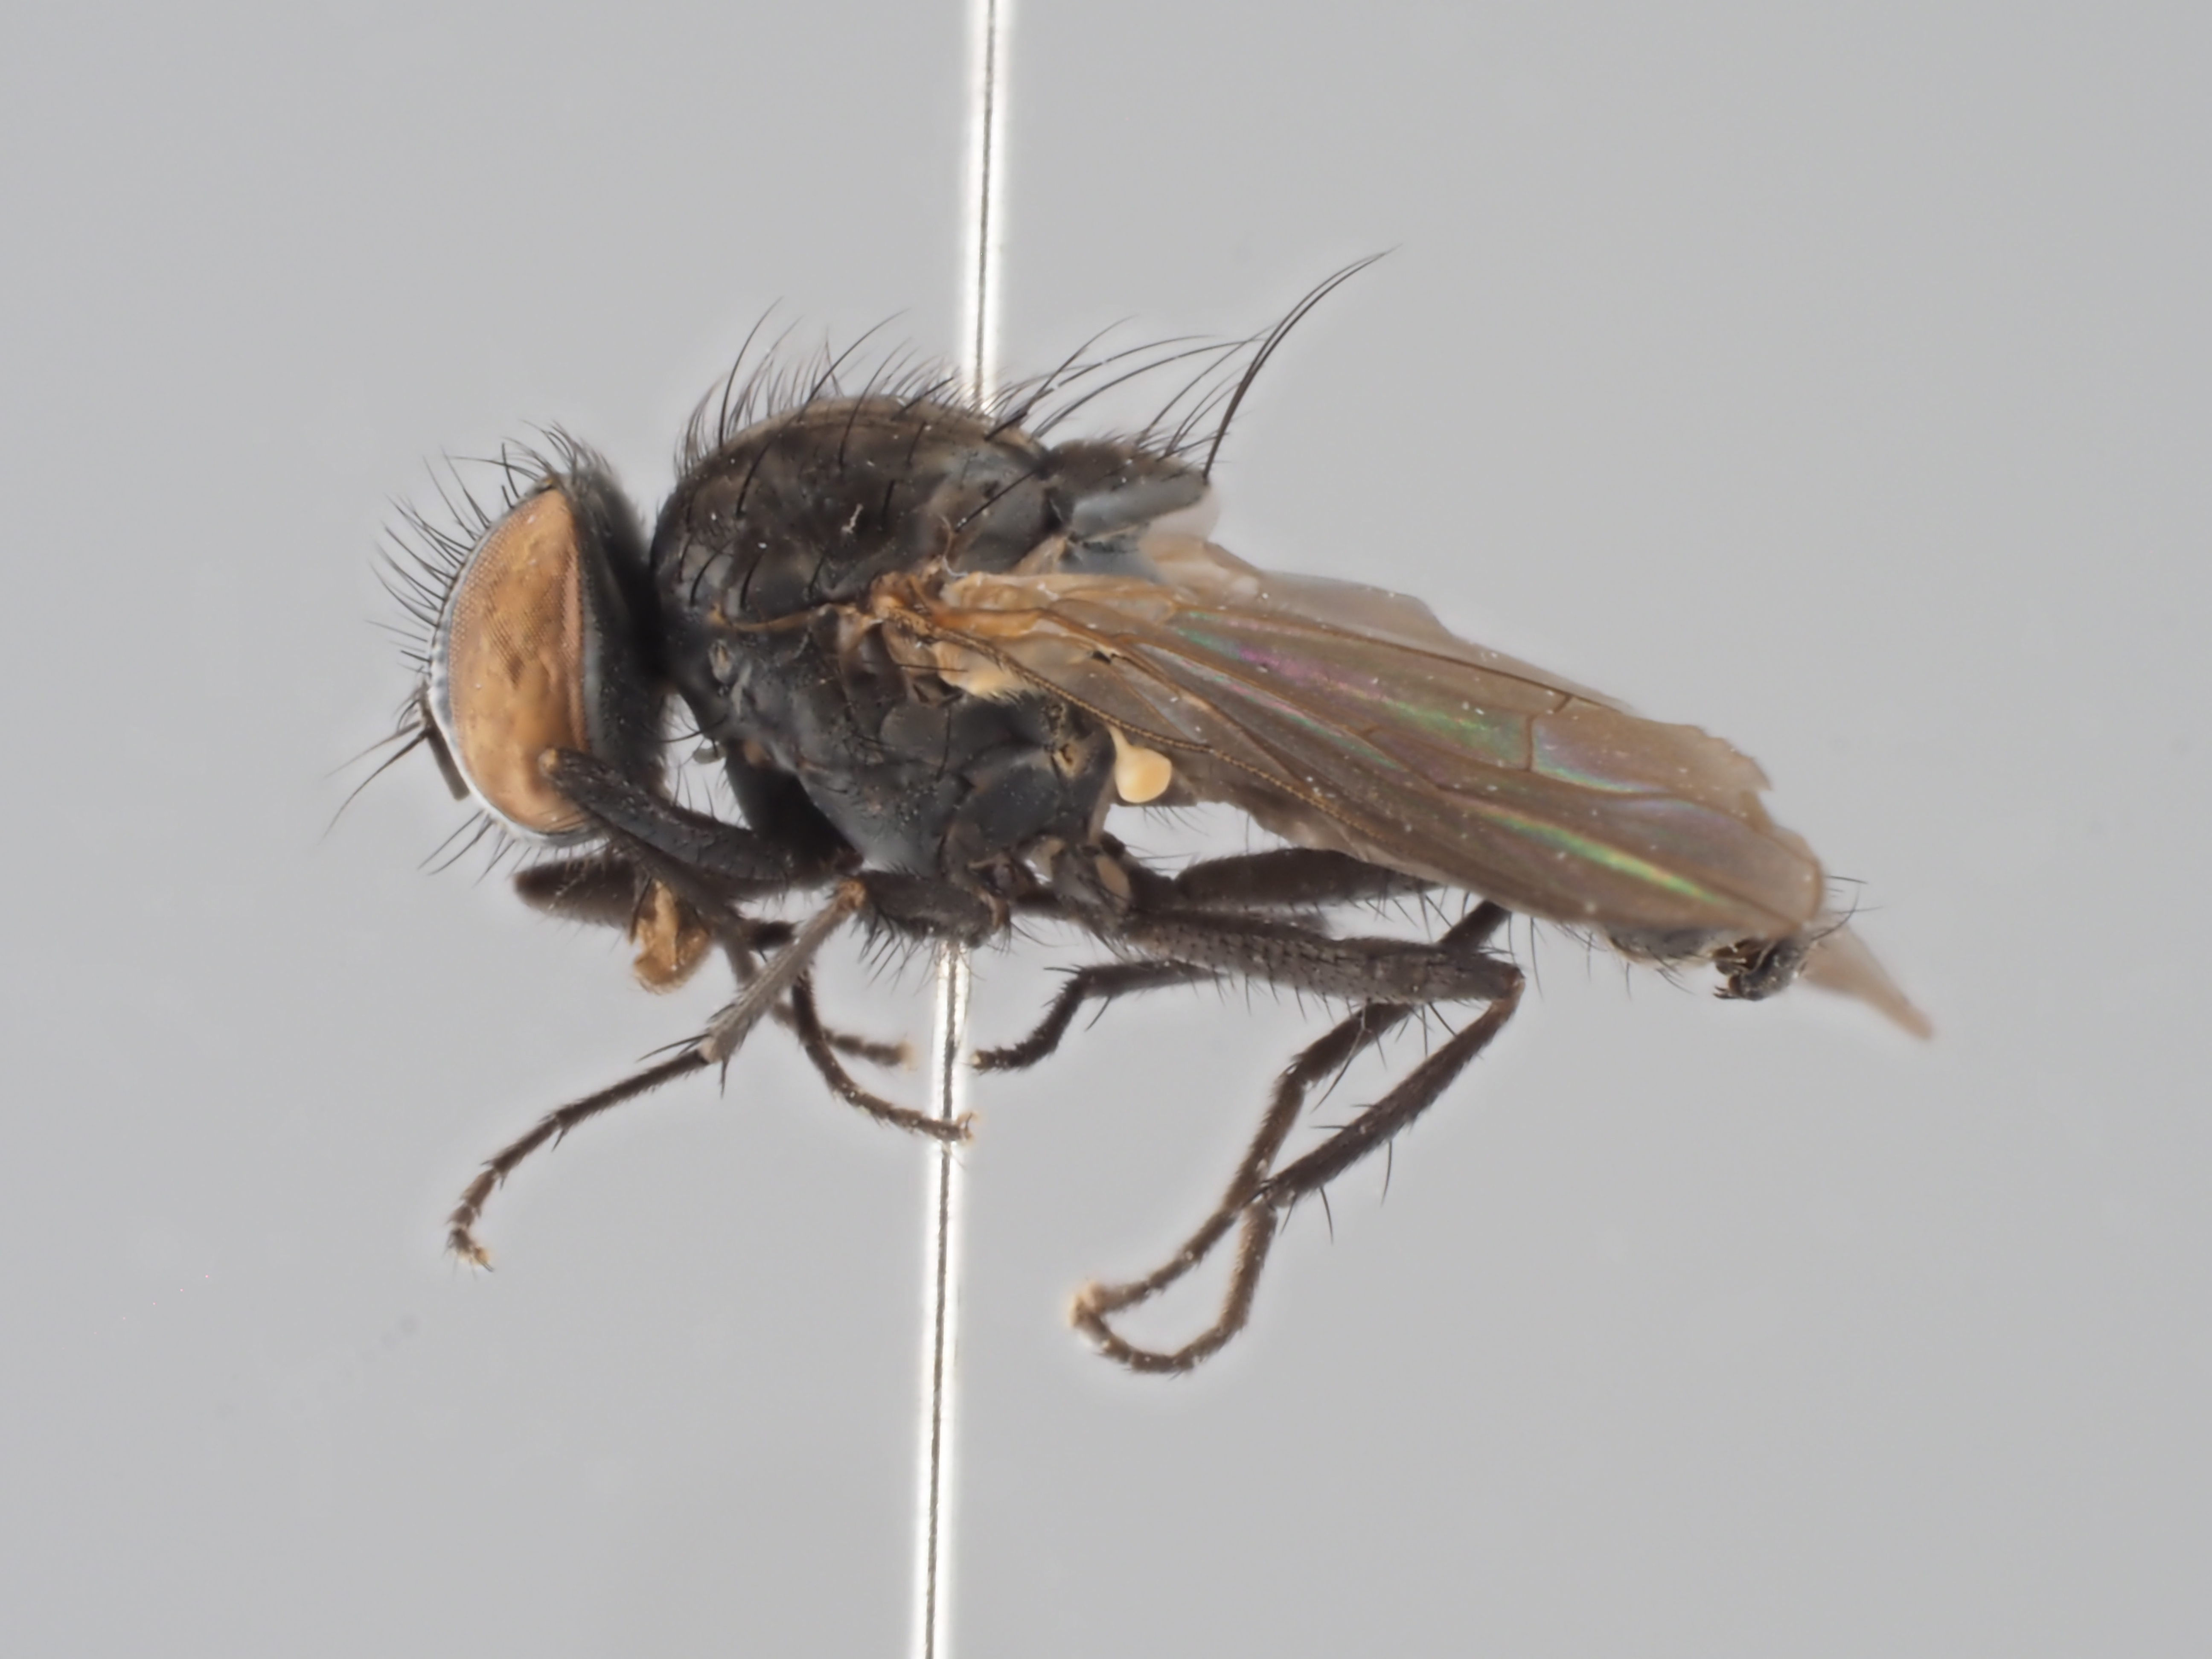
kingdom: Animalia
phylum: Arthropoda
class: Insecta
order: Diptera
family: Fanniidae
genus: Fannia
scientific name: Fannia canicularis
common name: Little house fly
